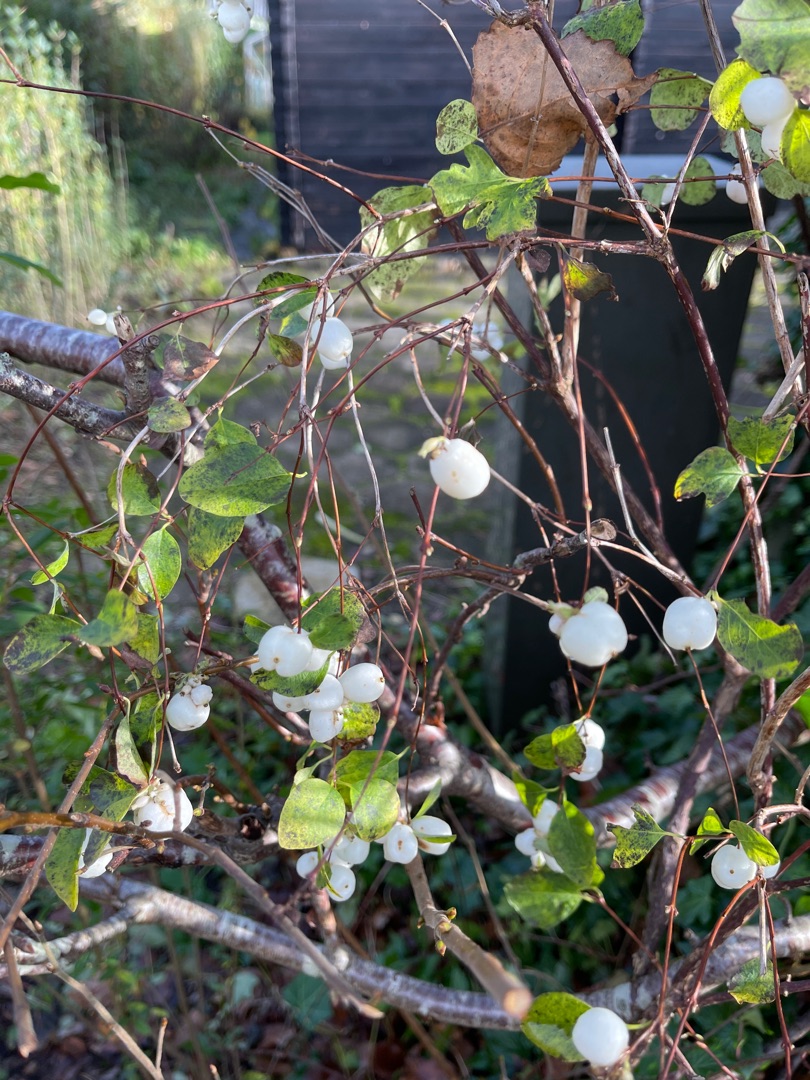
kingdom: Plantae
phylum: Tracheophyta
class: Magnoliopsida
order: Dipsacales
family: Caprifoliaceae
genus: Symphoricarpos
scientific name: Symphoricarpos albus
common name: Almindelig snebær
